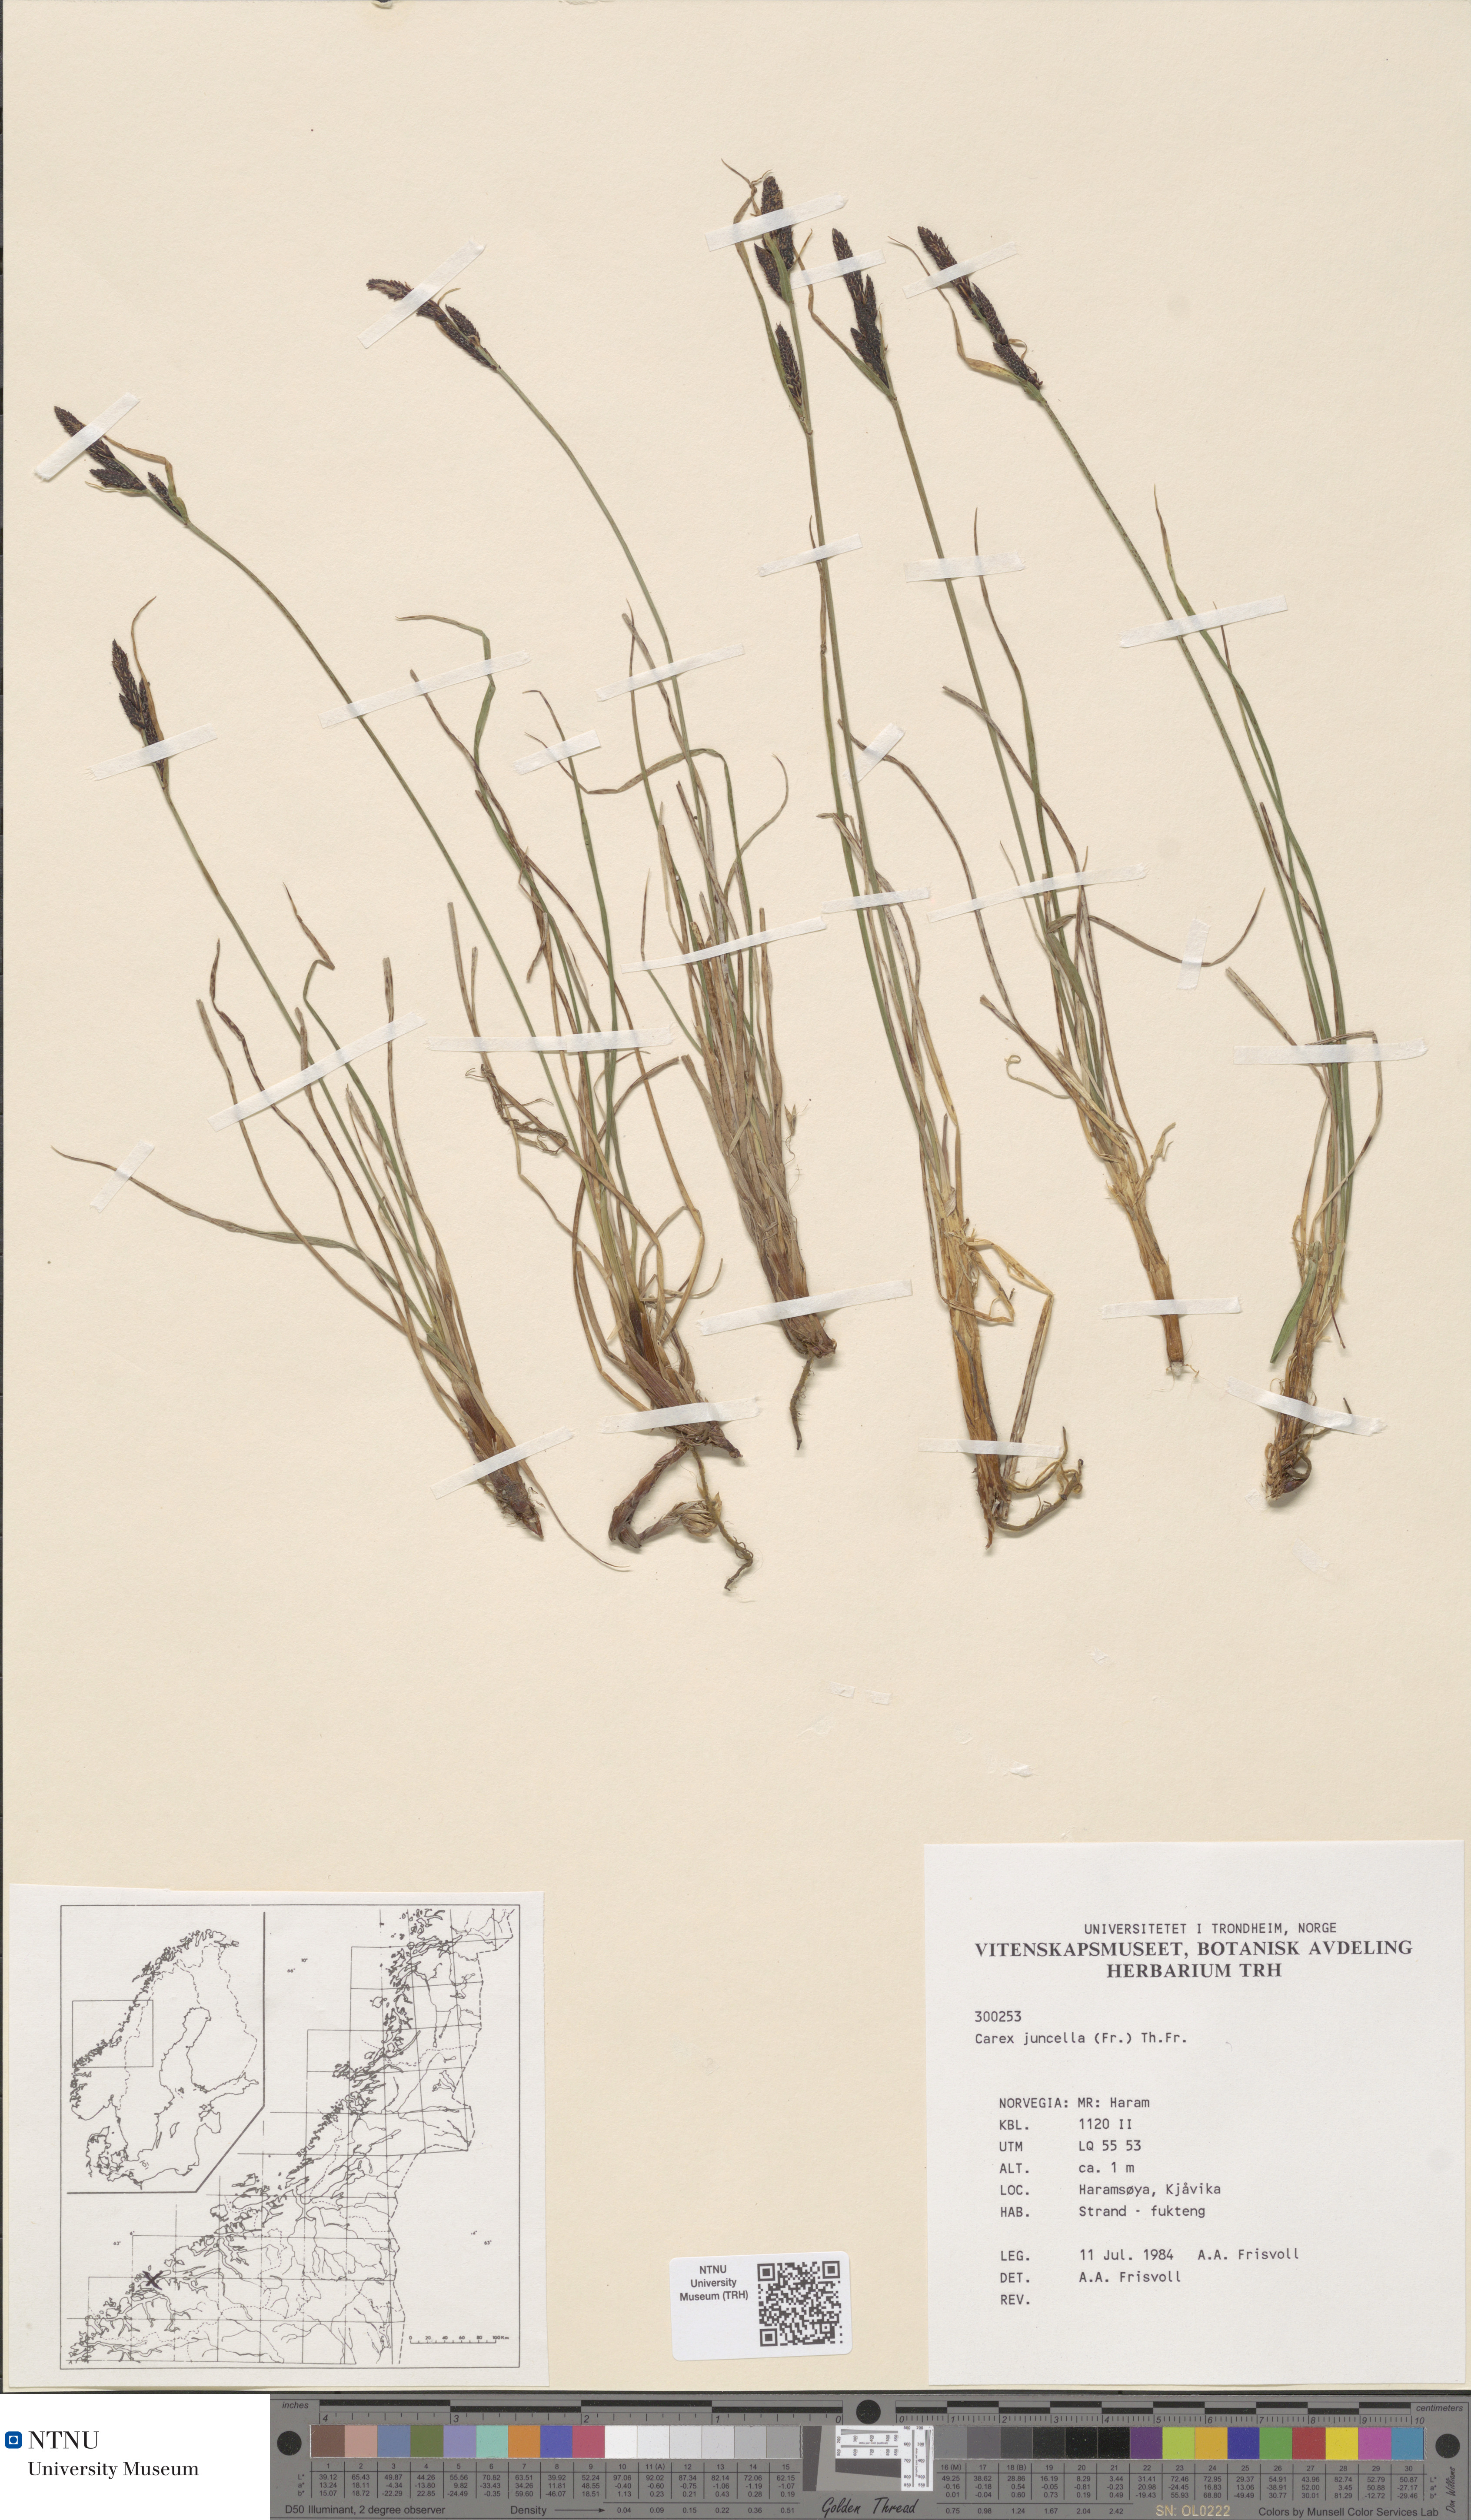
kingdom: Plantae
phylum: Tracheophyta
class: Liliopsida
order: Poales
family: Cyperaceae
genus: Carex
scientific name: Carex nigra
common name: Common sedge
